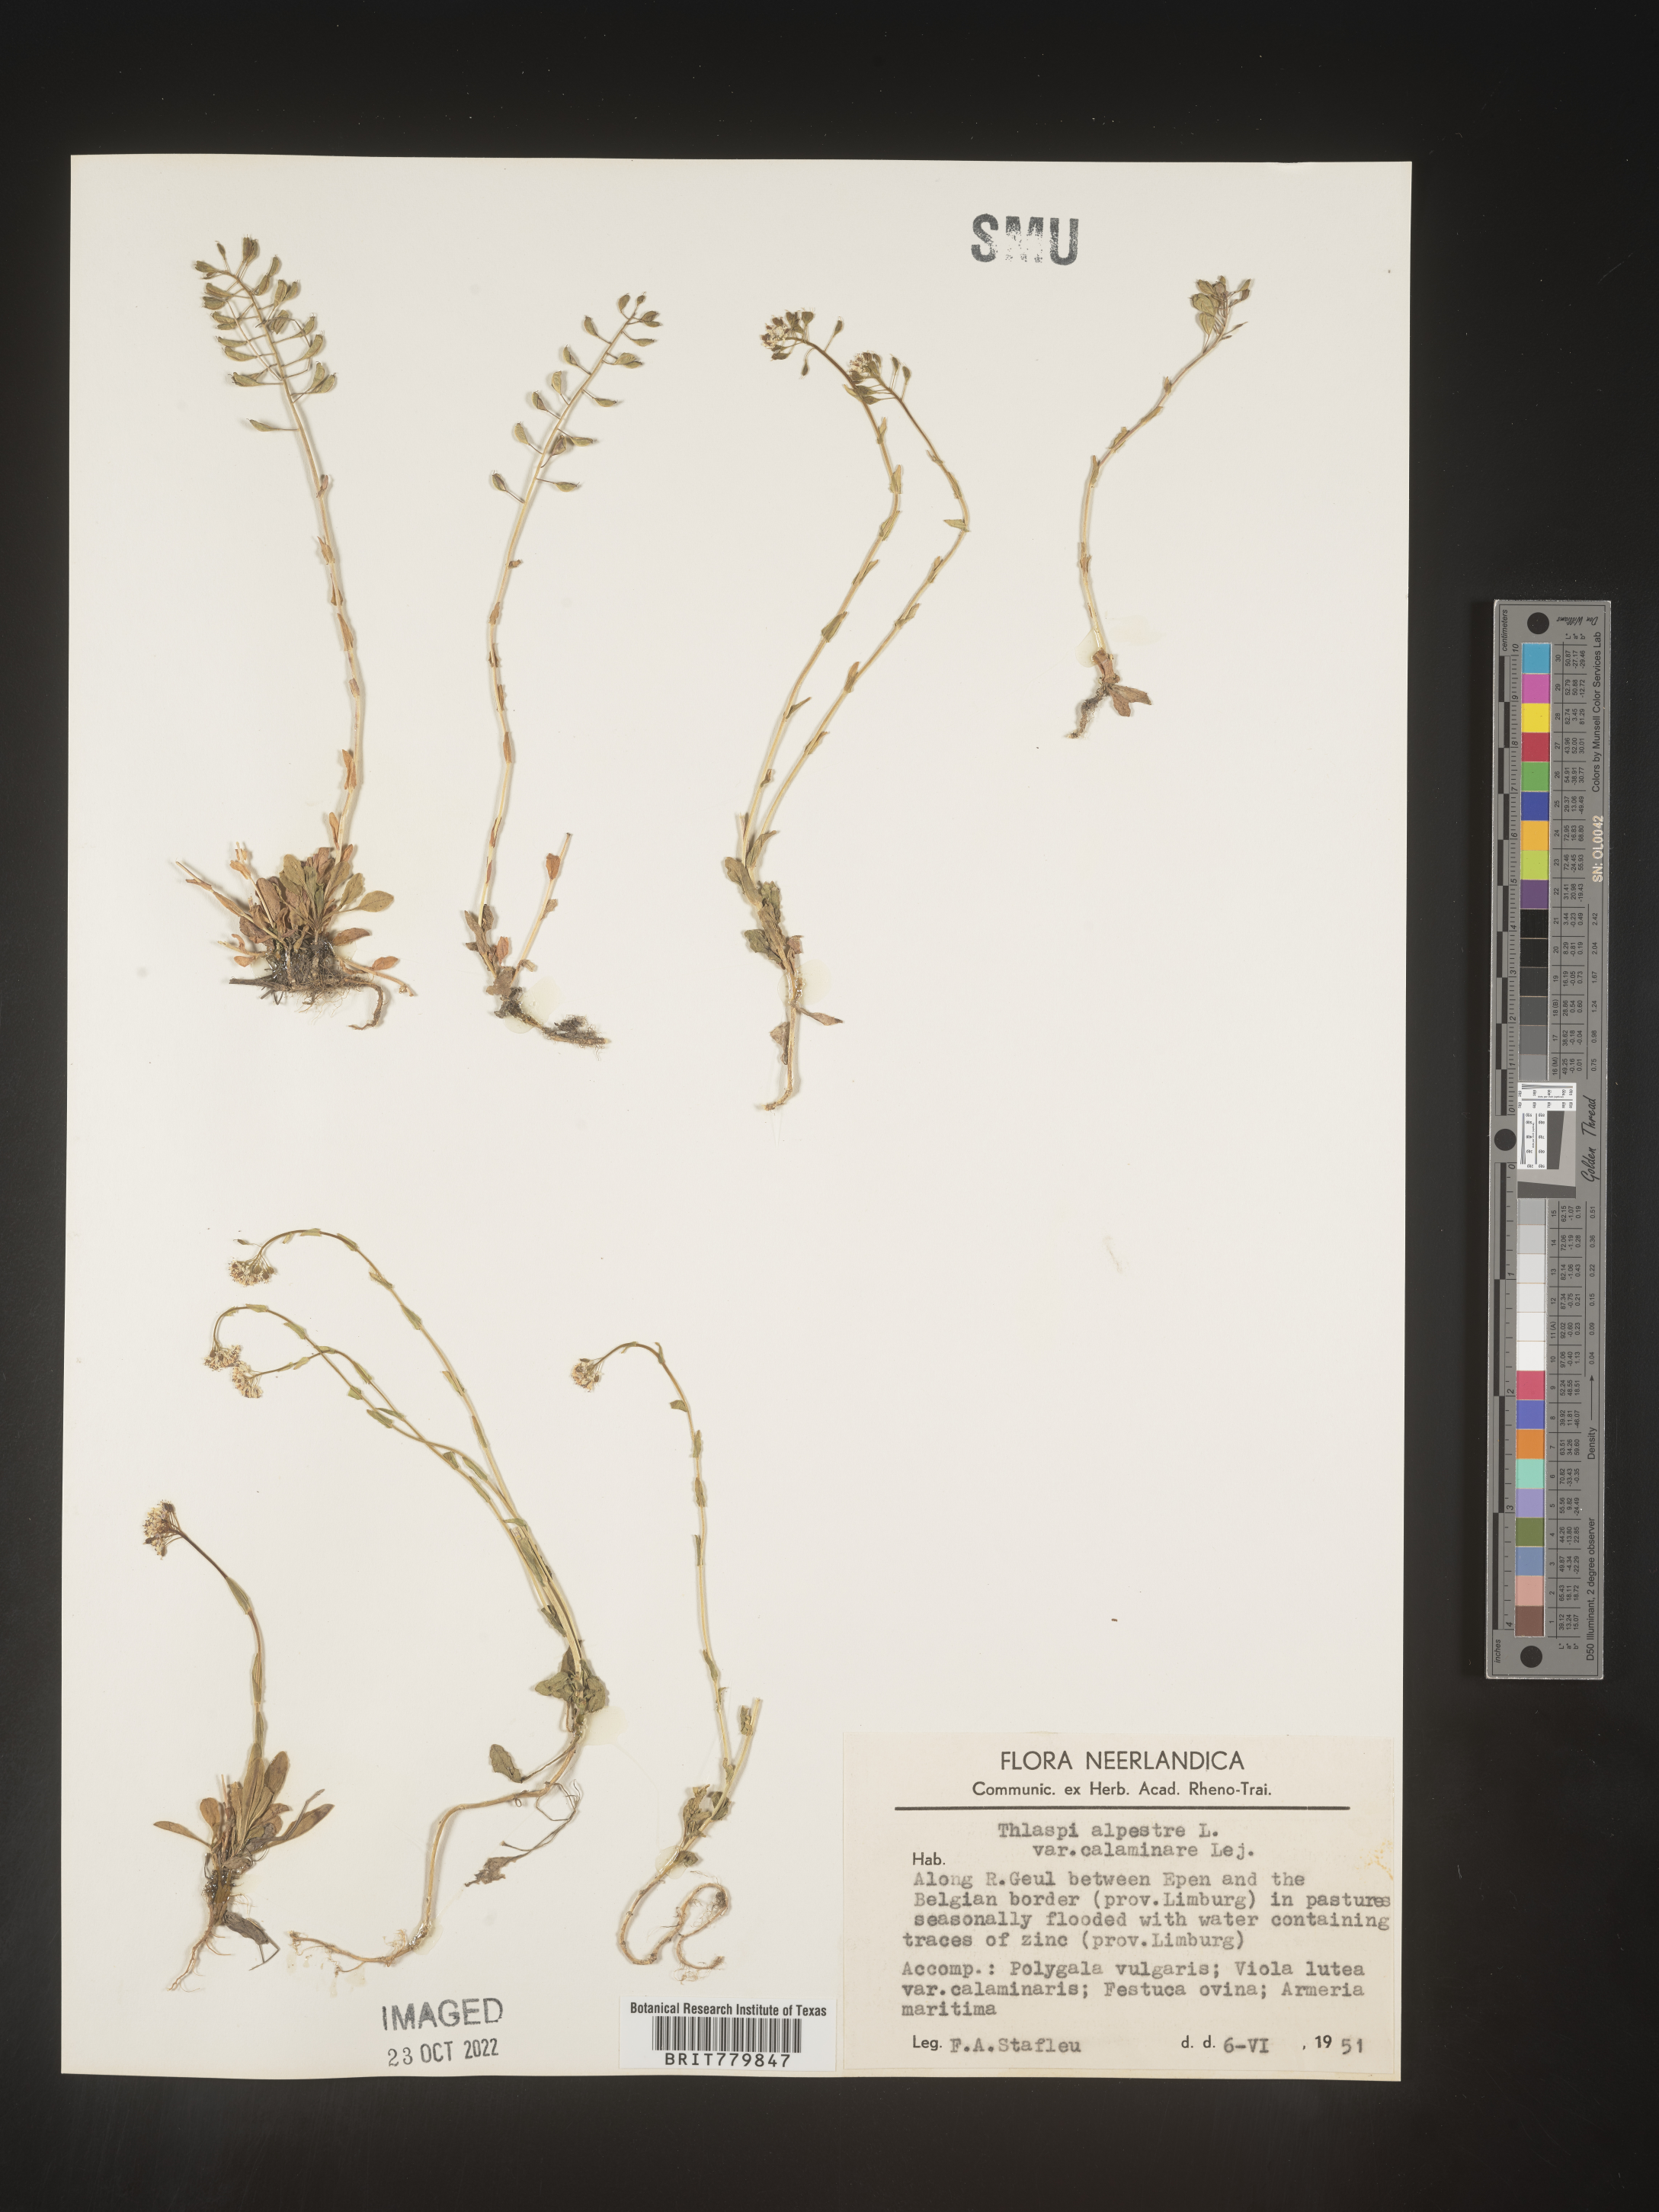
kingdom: Plantae
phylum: Tracheophyta
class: Magnoliopsida
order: Brassicales
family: Brassicaceae
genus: Thlaspi
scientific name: Thlaspi
